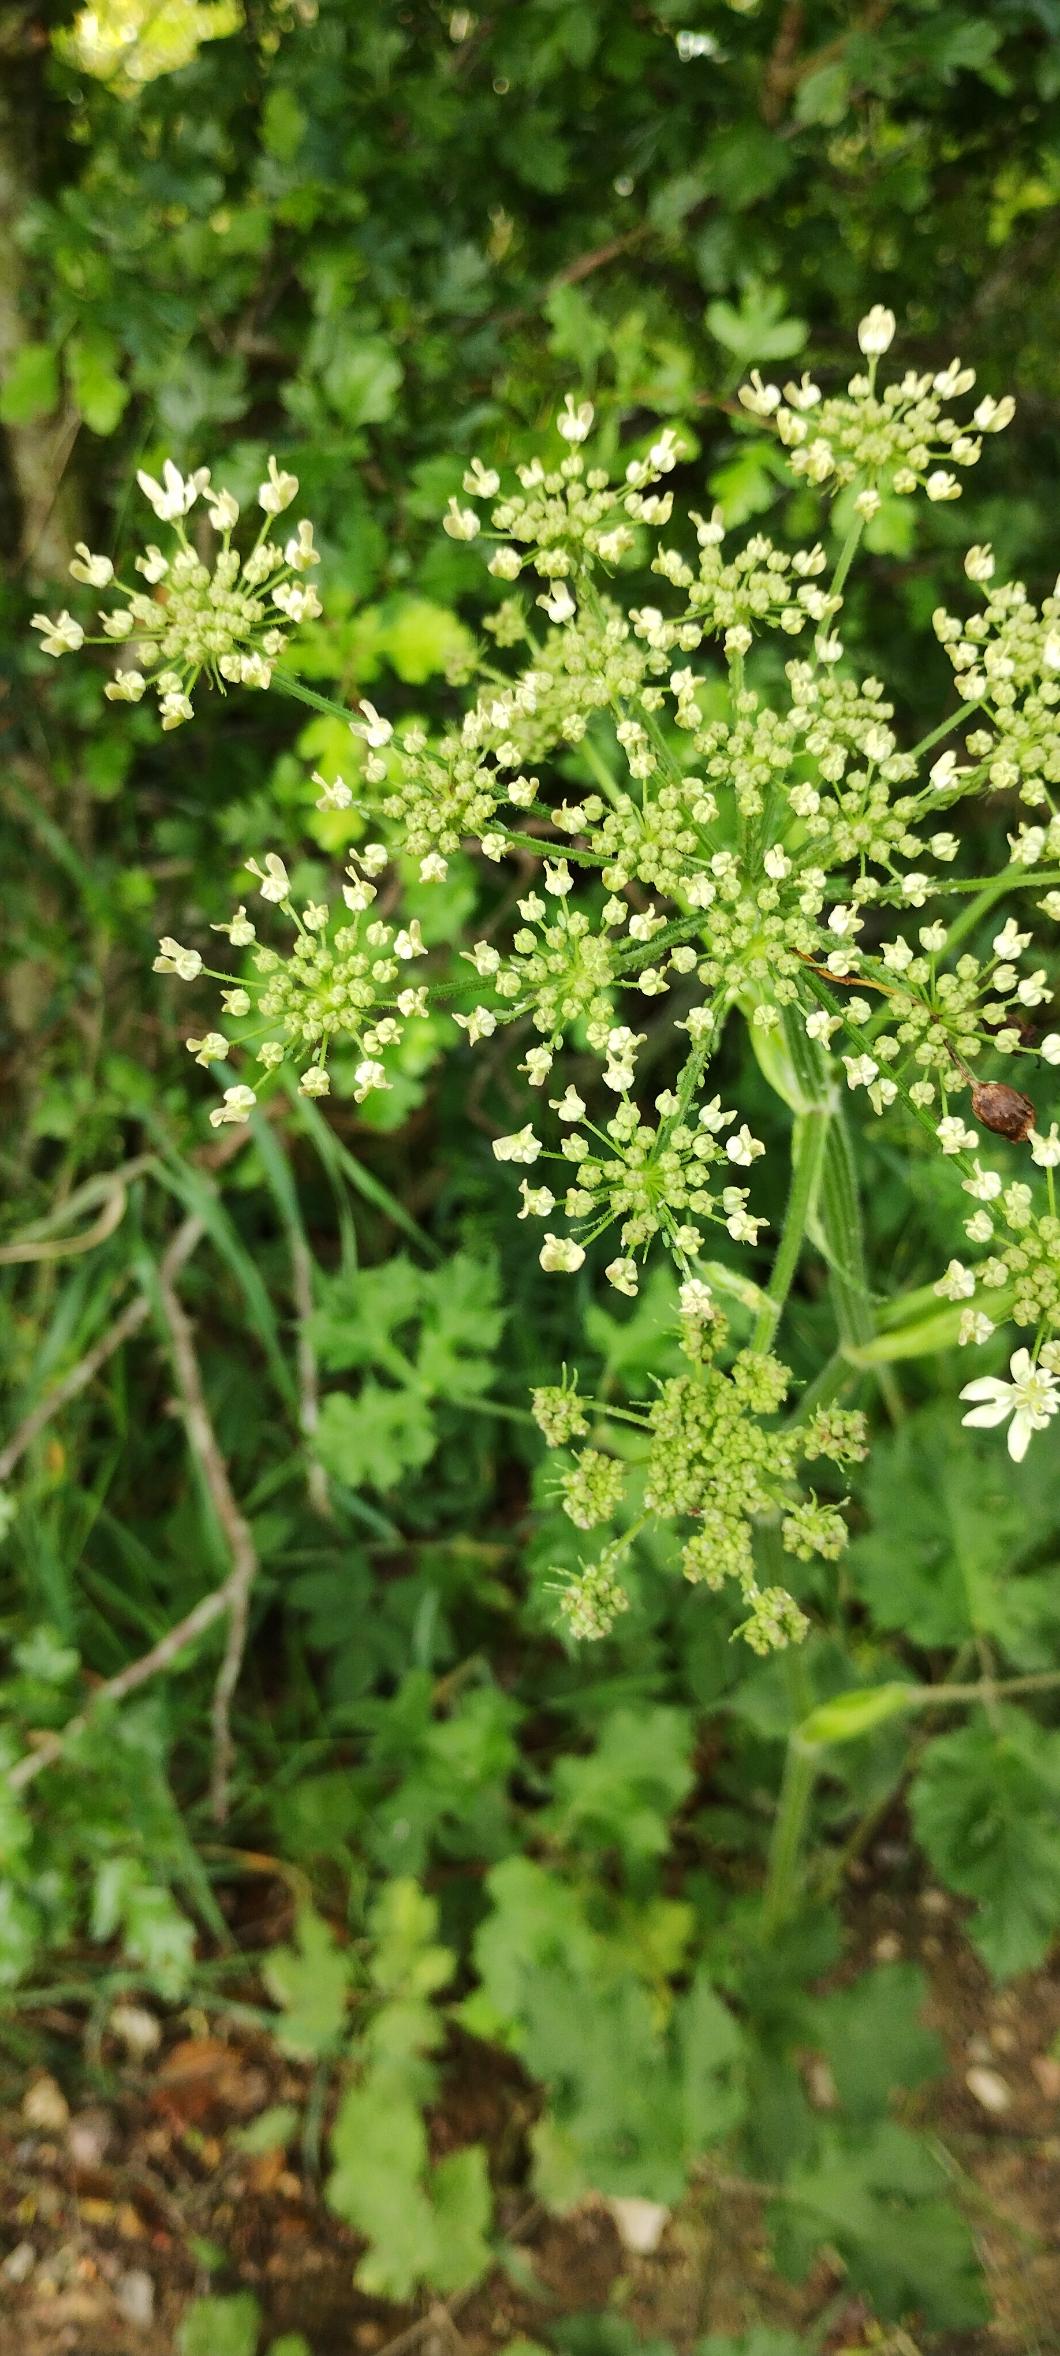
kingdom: Plantae
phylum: Tracheophyta
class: Magnoliopsida
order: Apiales
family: Apiaceae
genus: Heracleum
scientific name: Heracleum sphondylium
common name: Almindelig bjørneklo
